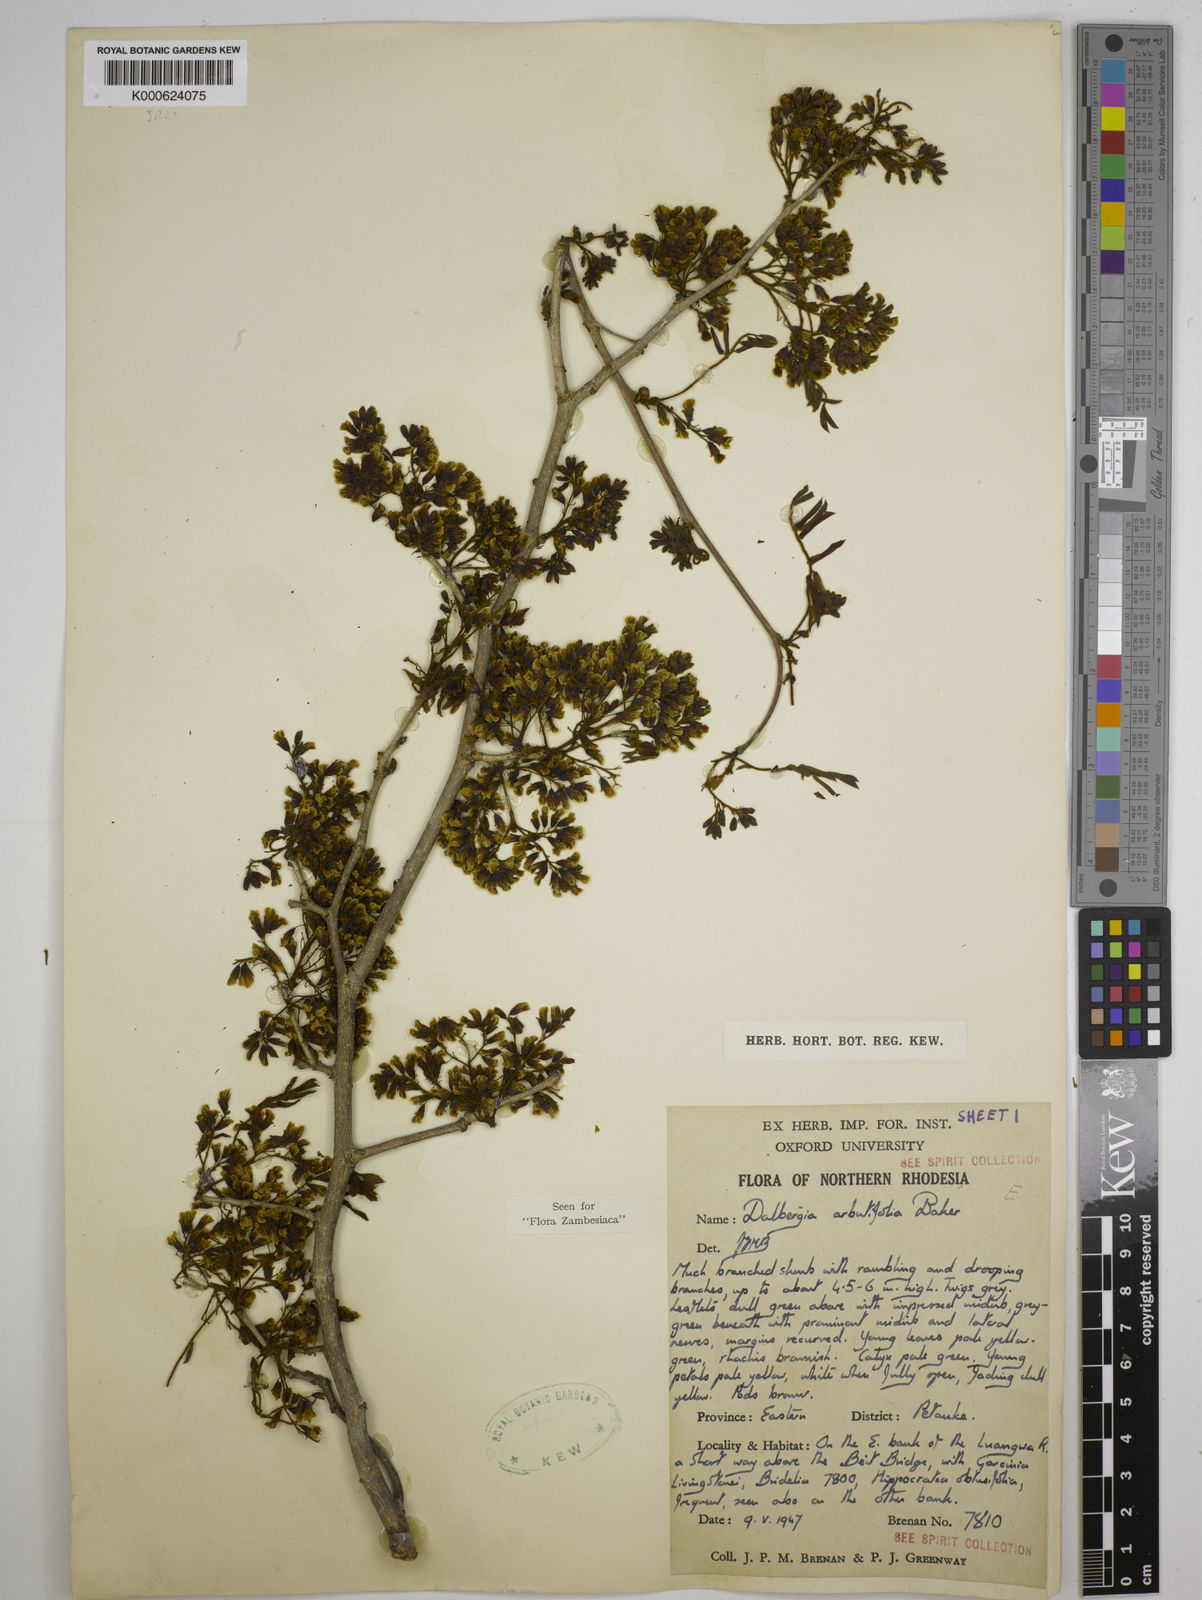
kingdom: Plantae
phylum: Tracheophyta
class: Magnoliopsida
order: Fabales
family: Fabaceae
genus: Dalbergia
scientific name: Dalbergia arbutifolia
